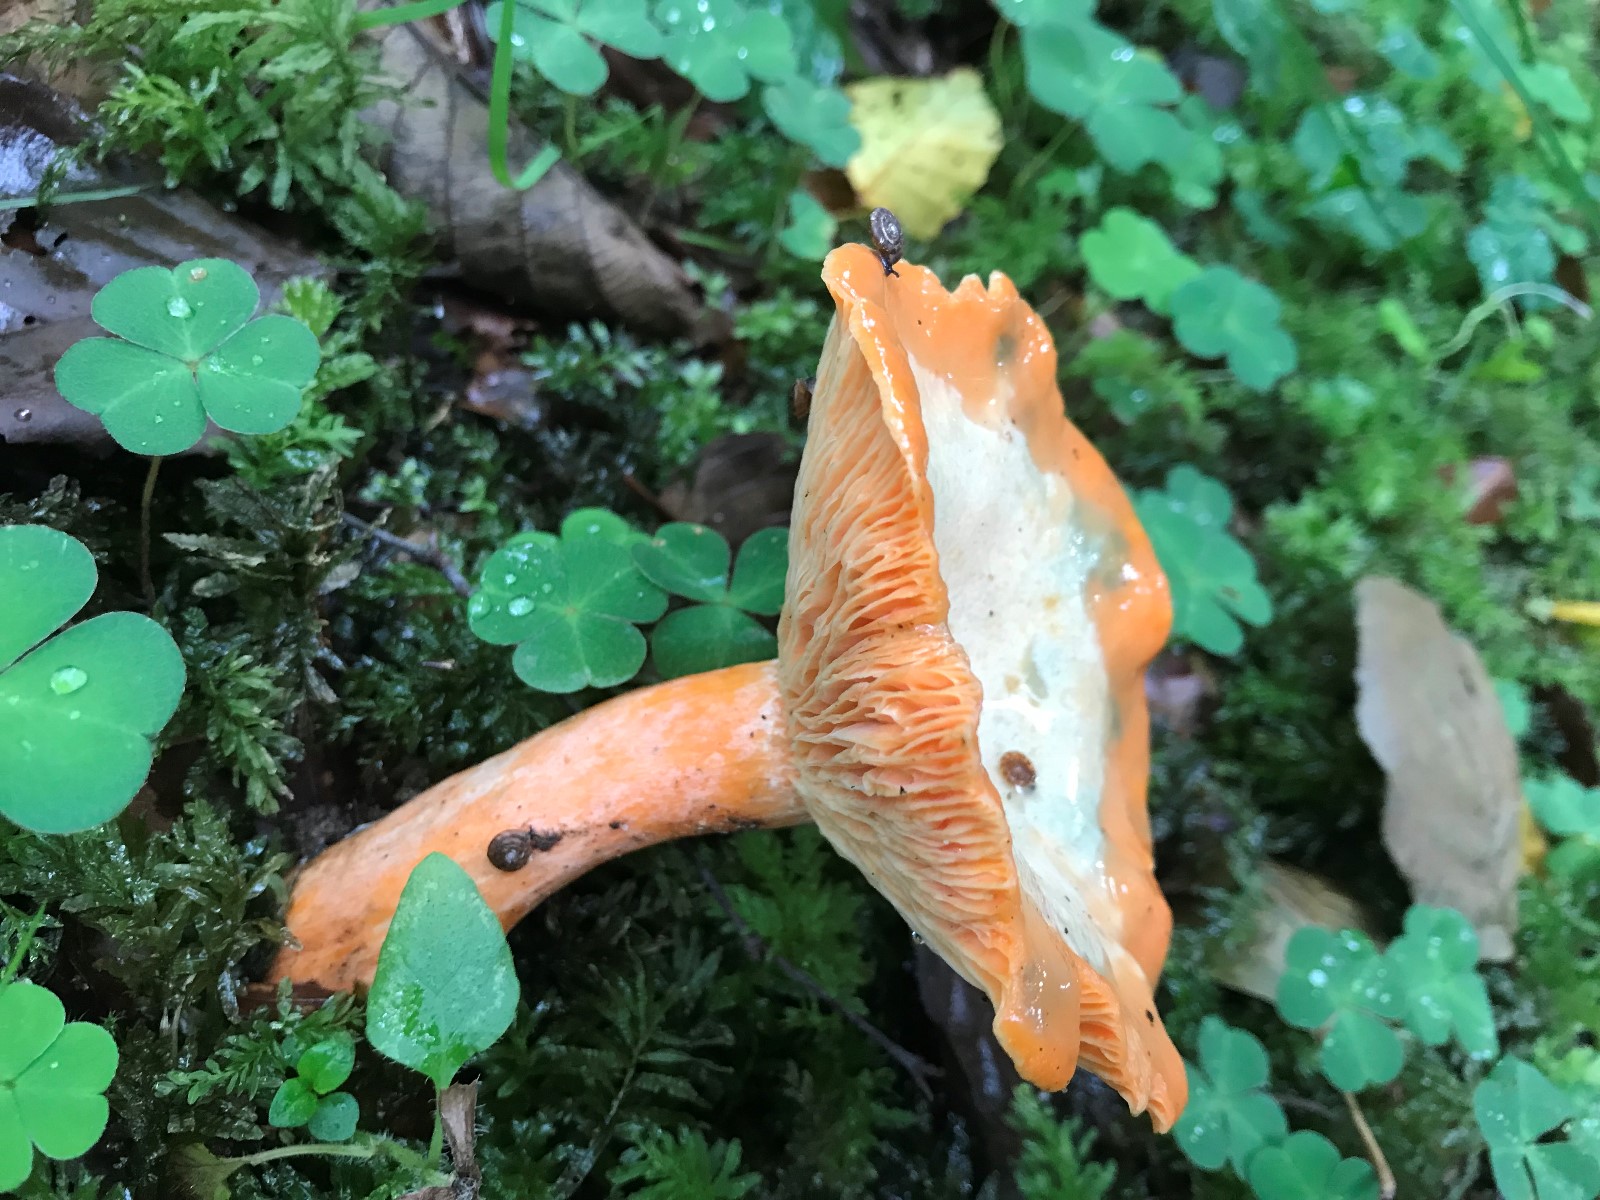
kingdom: Fungi
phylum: Basidiomycota
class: Agaricomycetes
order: Russulales
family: Russulaceae
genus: Lactarius
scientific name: Lactarius deterrimus
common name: gran-mælkehat
